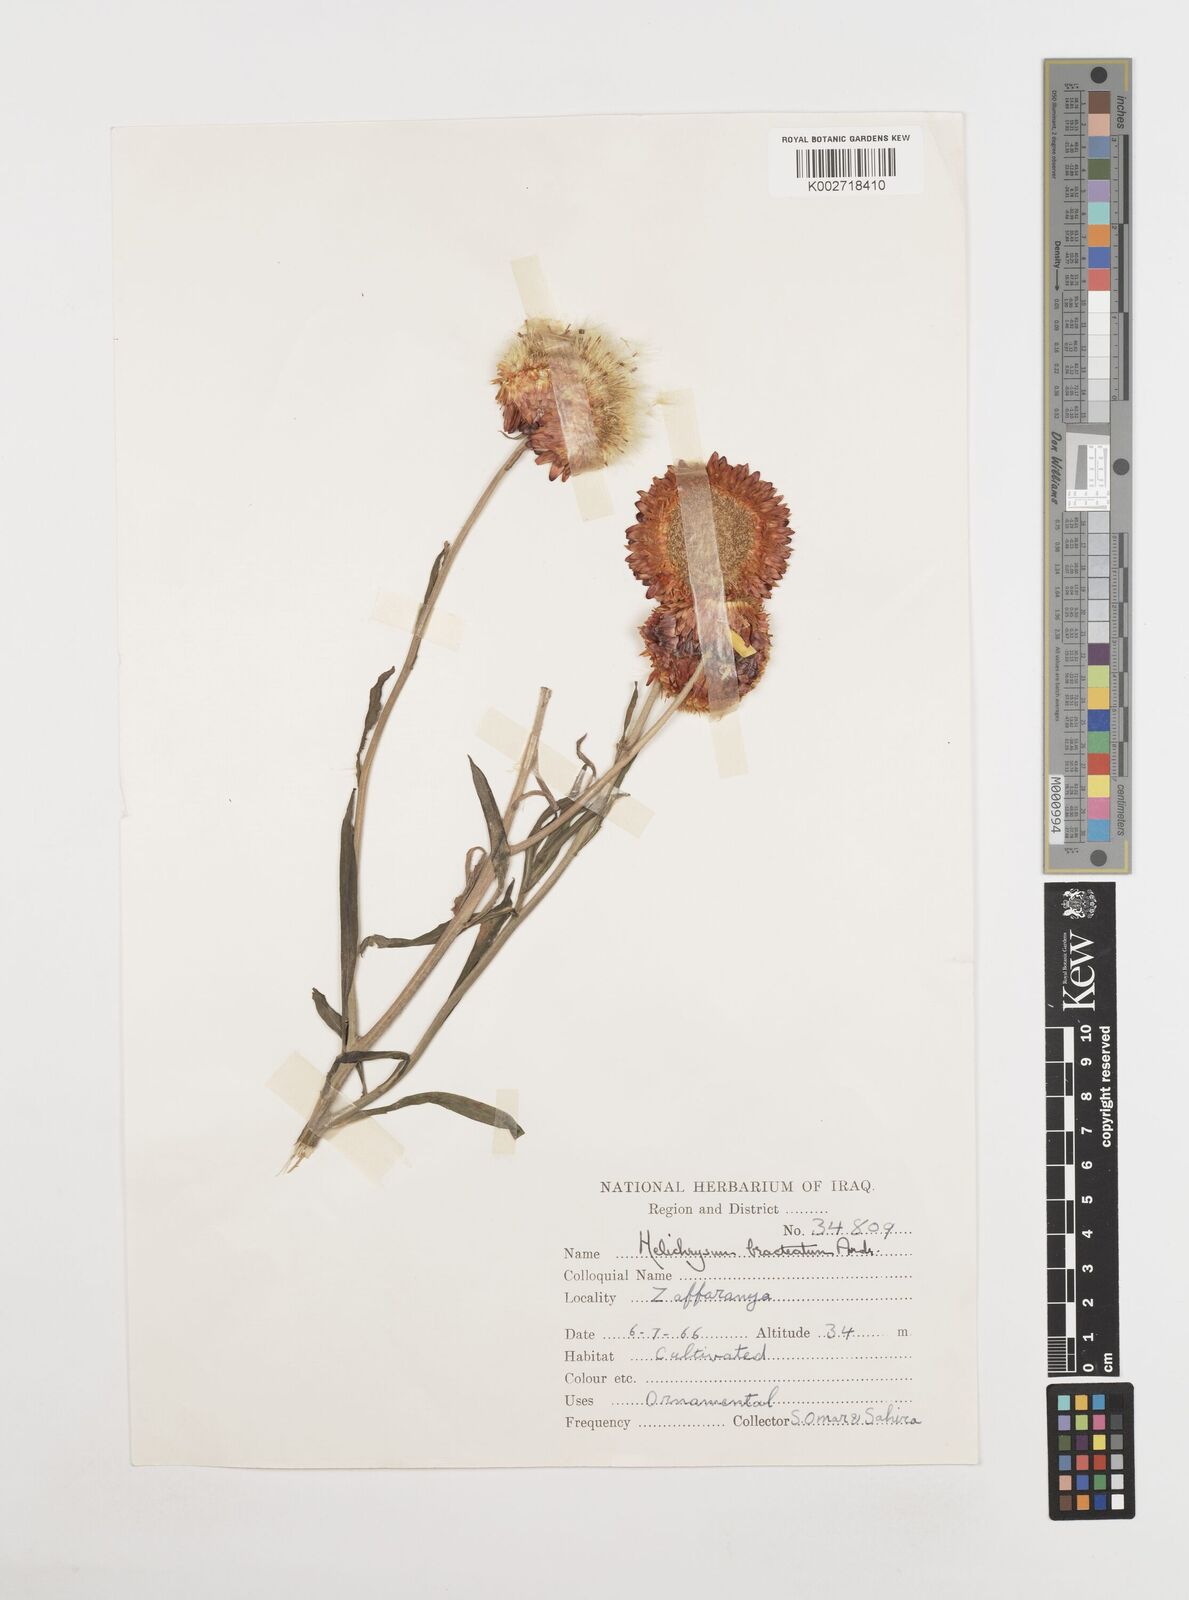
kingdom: Plantae
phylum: Tracheophyta
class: Magnoliopsida
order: Asterales
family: Asteraceae
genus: Xerochrysum
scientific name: Xerochrysum bracteatum
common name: Bracted strawflower
